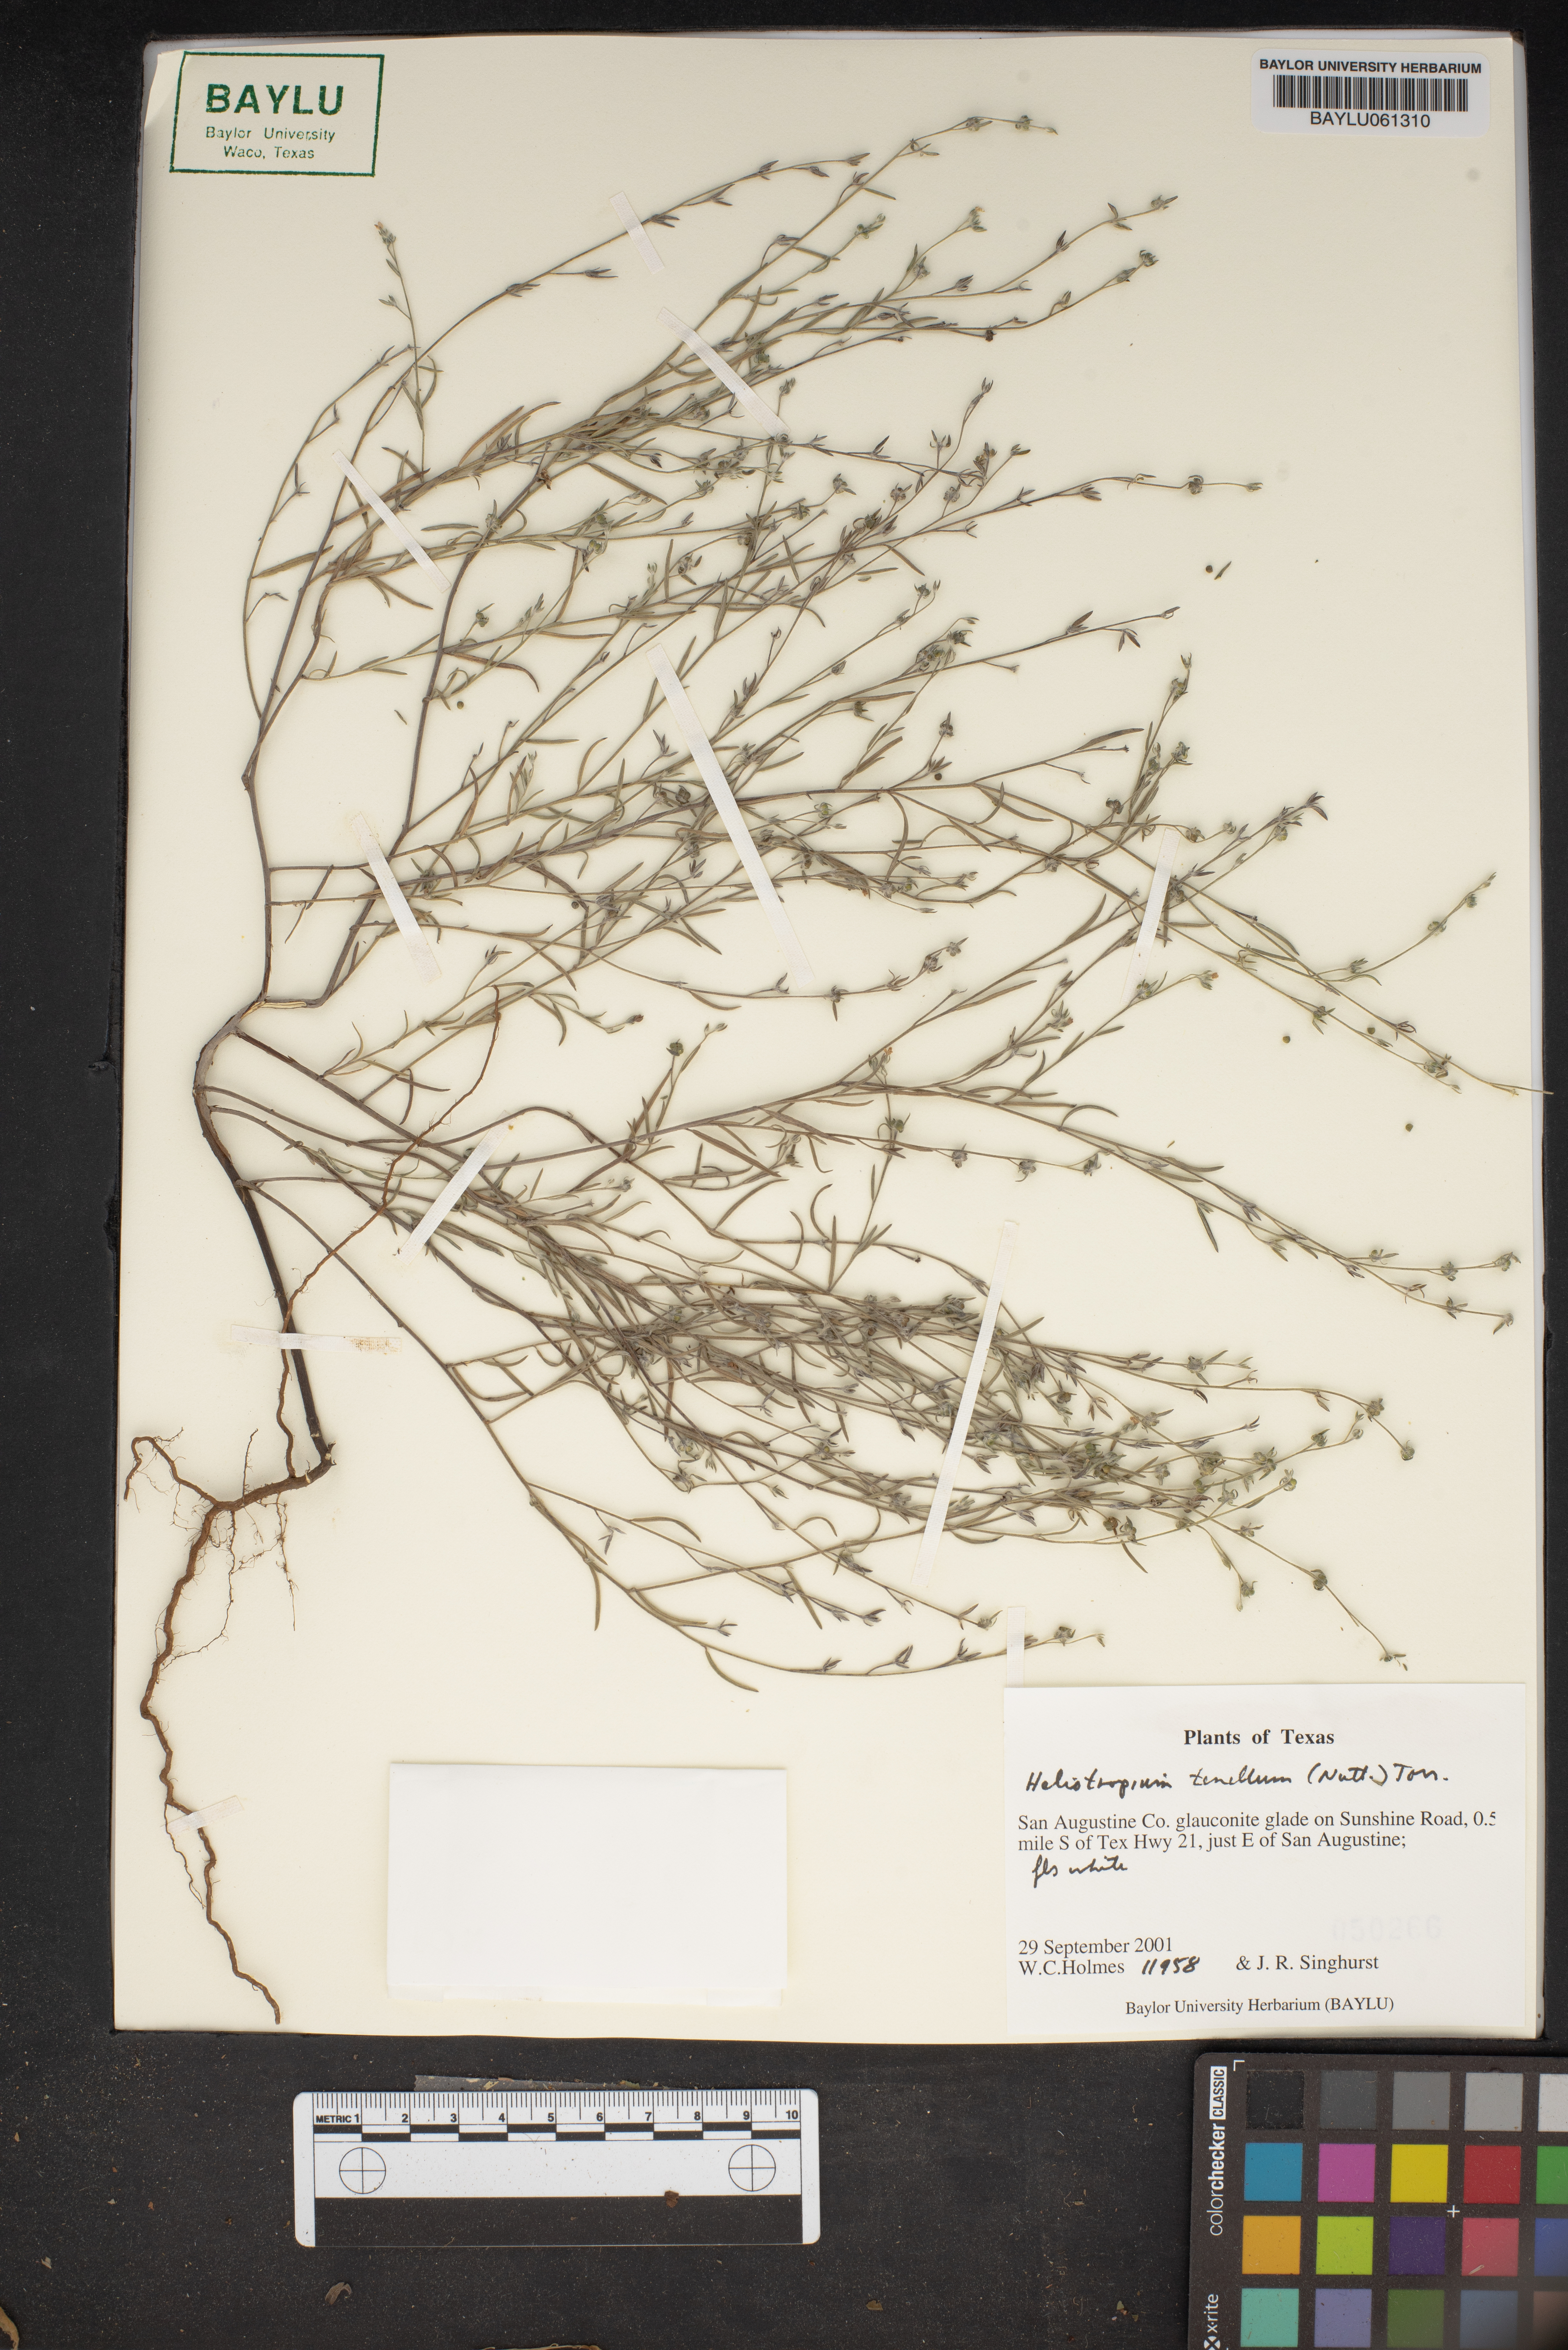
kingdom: Plantae
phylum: Tracheophyta
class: Magnoliopsida
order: Boraginales
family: Heliotropiaceae
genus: Euploca
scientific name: Euploca tenella
